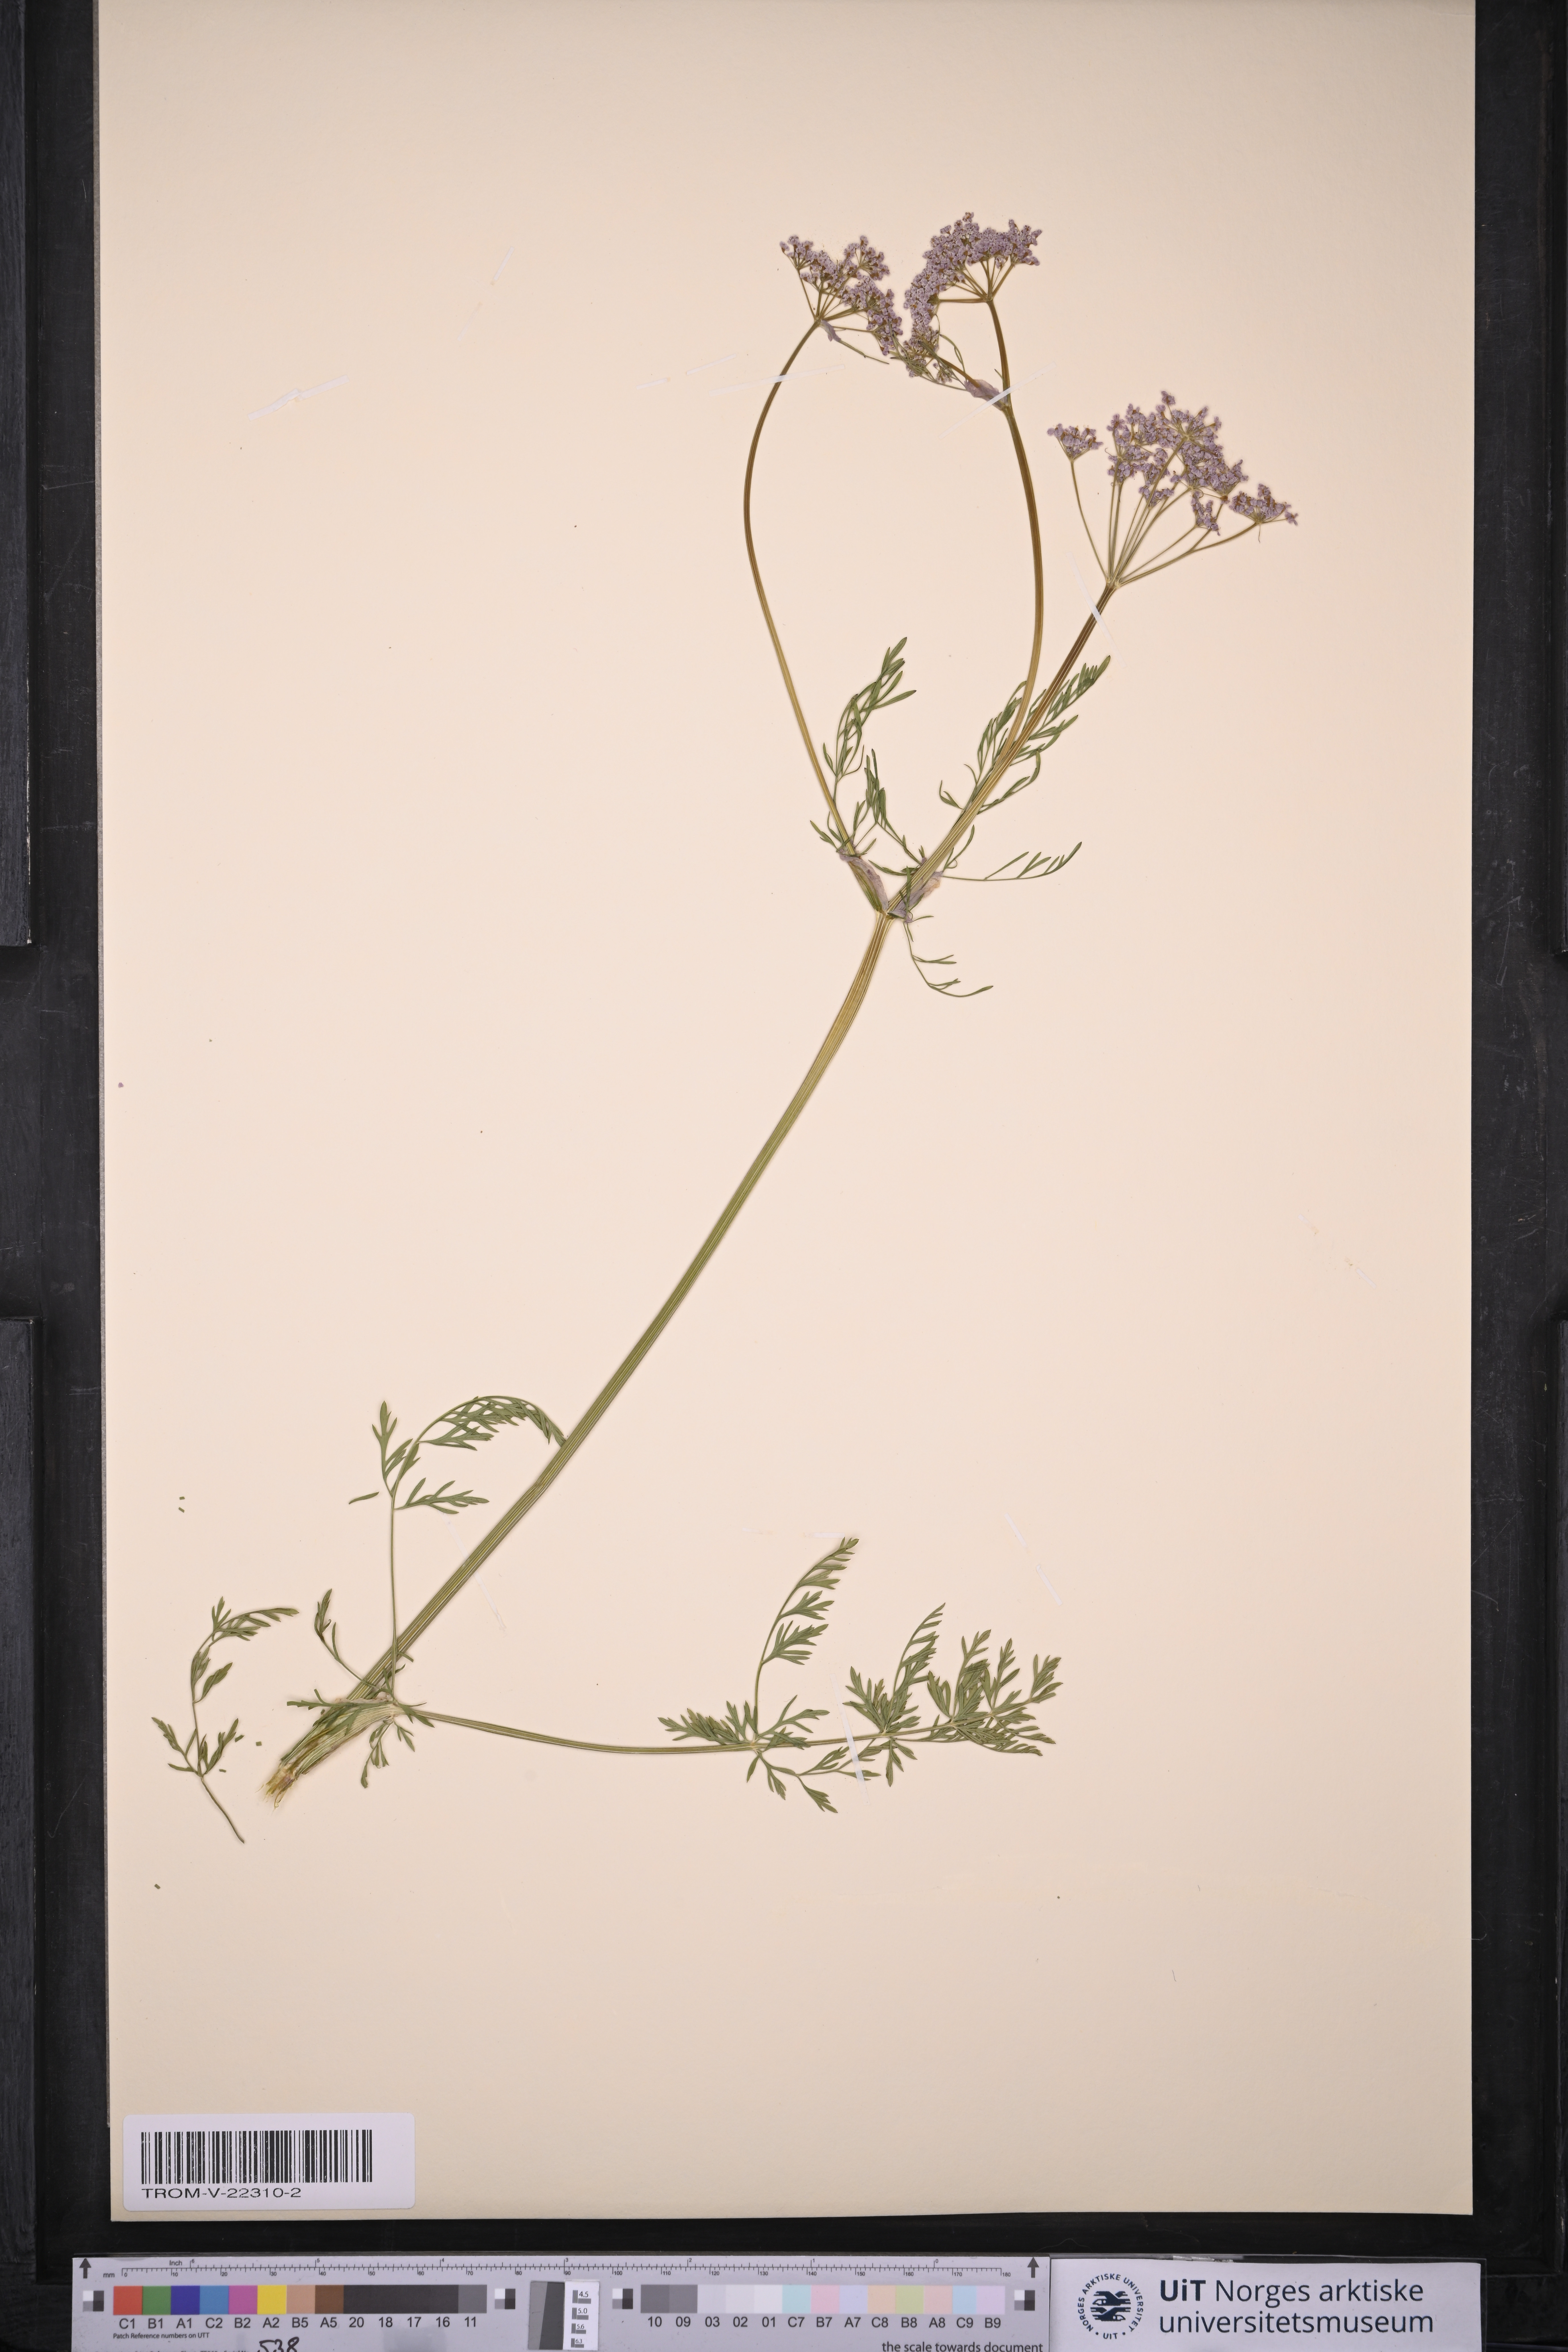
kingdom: Plantae
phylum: Tracheophyta
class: Magnoliopsida
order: Apiales
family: Apiaceae
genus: Carum
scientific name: Carum carvi
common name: Caraway
